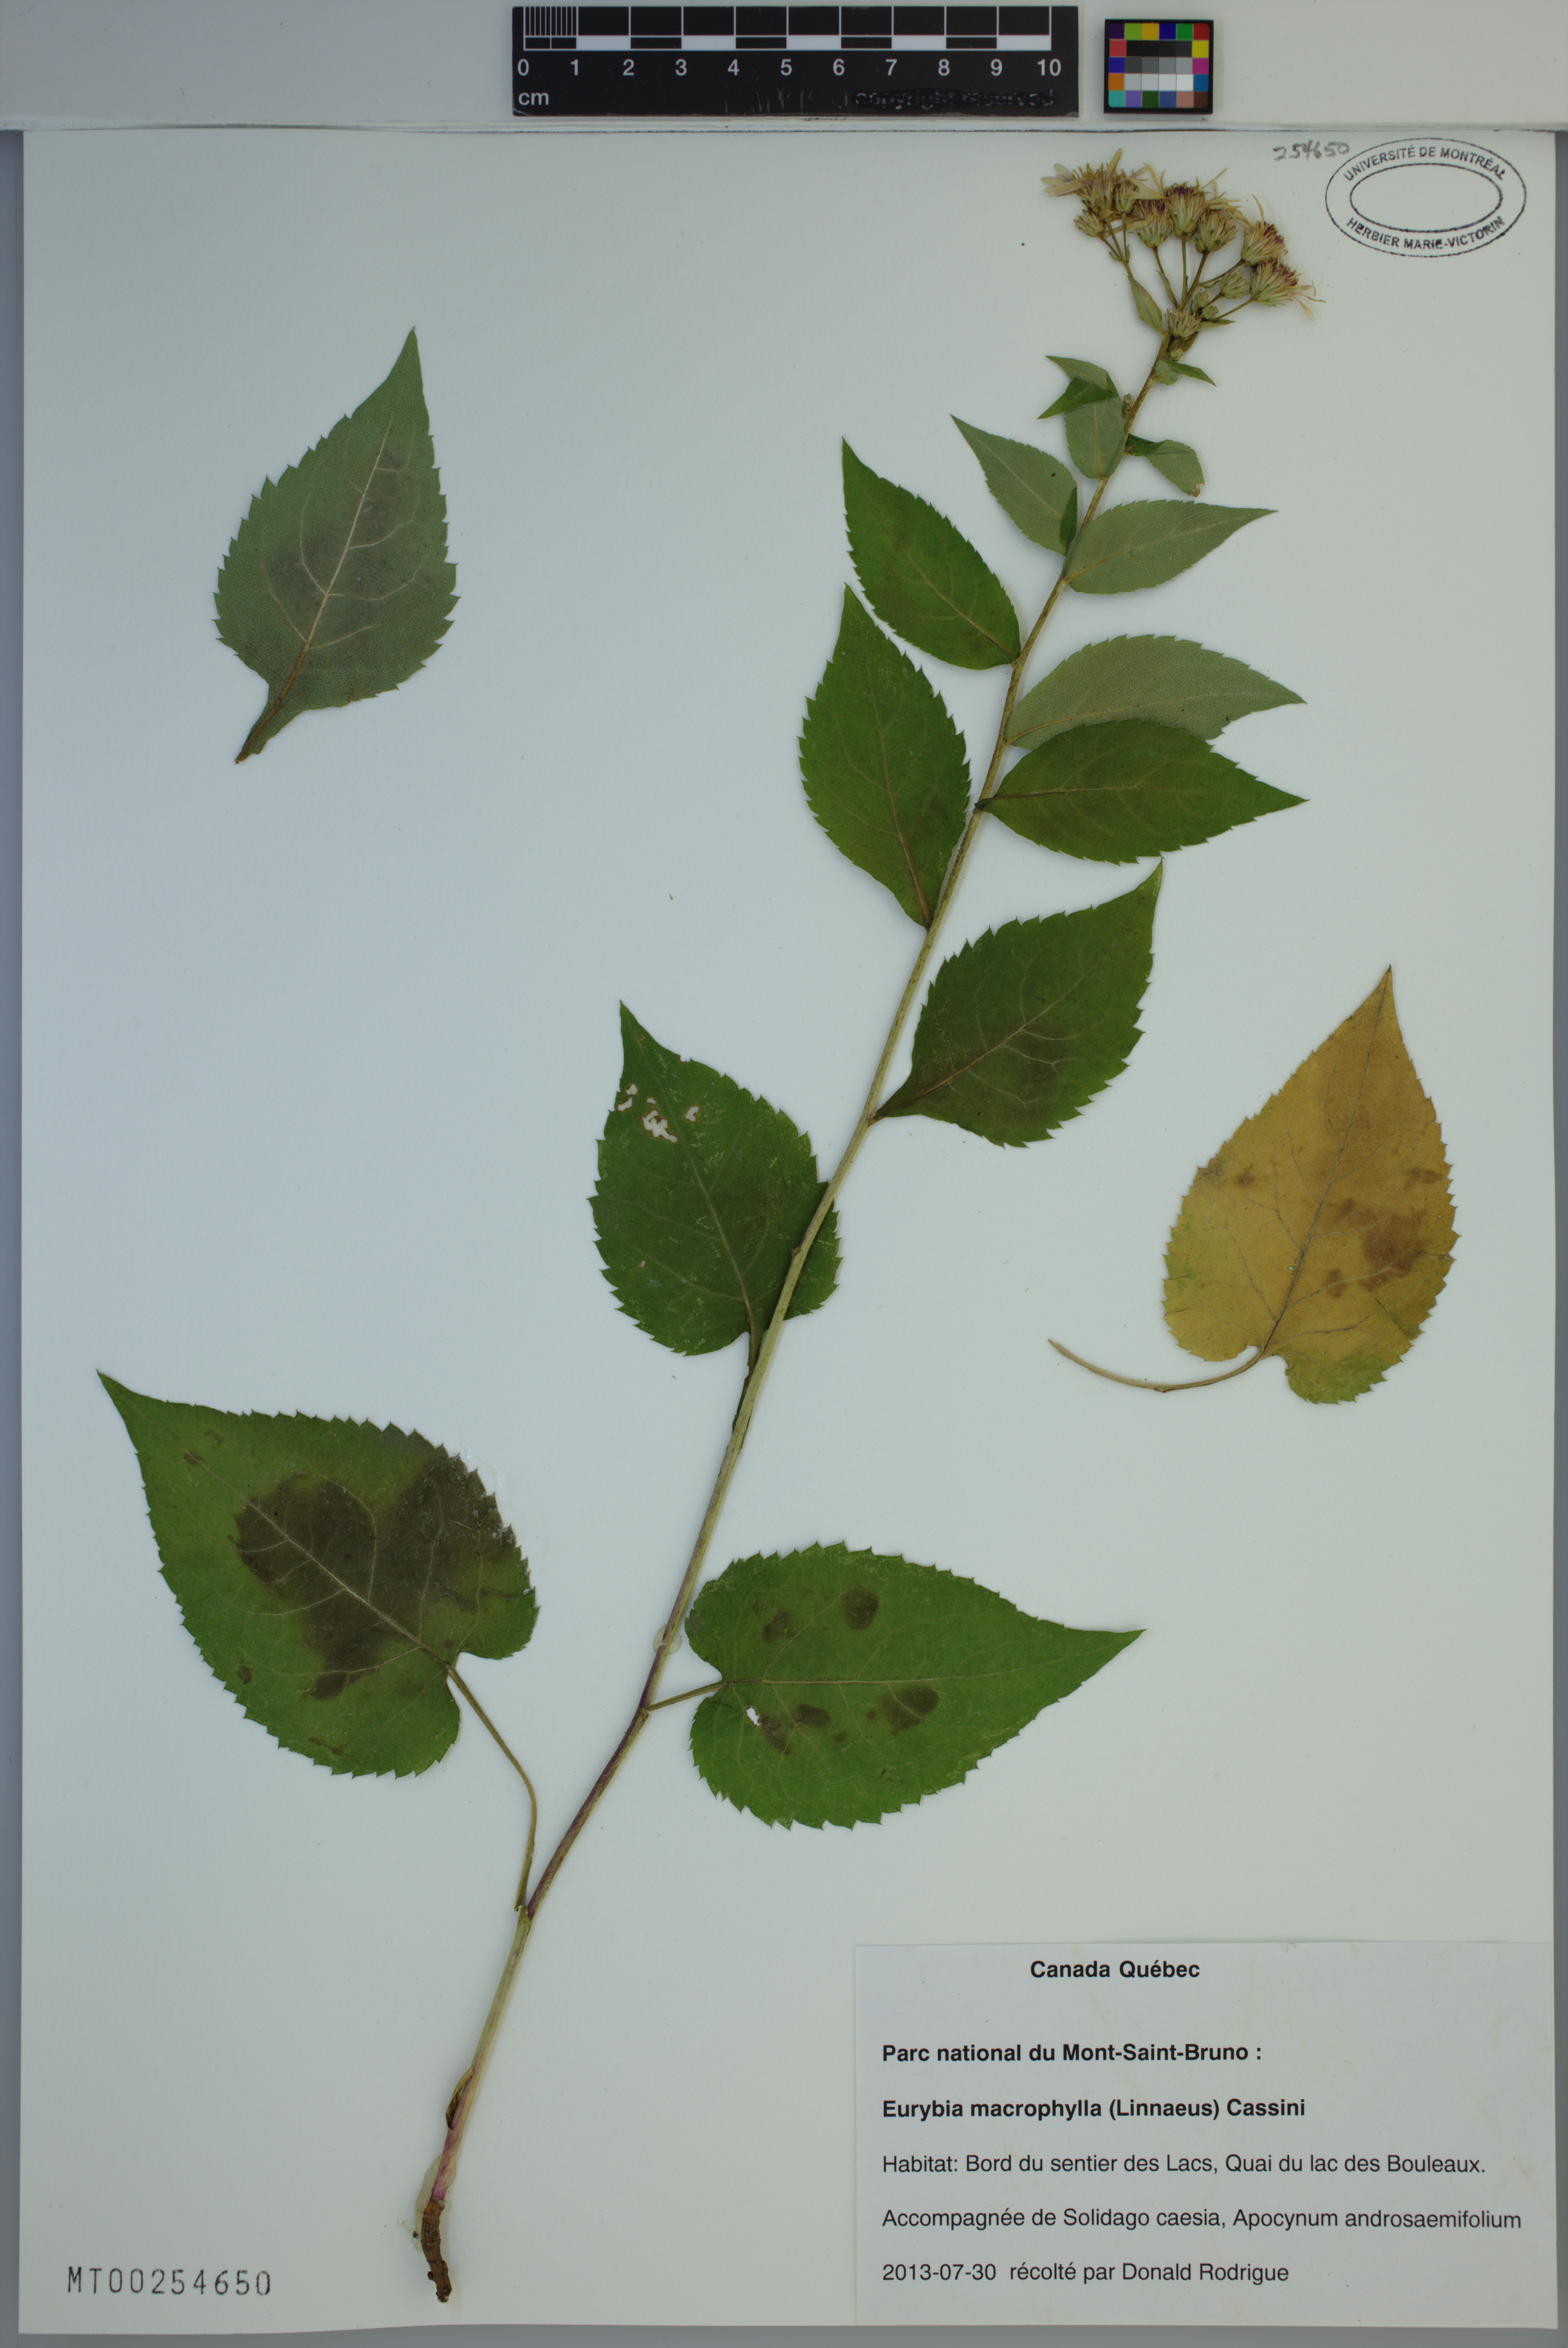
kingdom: Plantae
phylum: Tracheophyta
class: Magnoliopsida
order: Asterales
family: Asteraceae
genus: Eurybia
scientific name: Eurybia macrophylla
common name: Big-leaved aster
